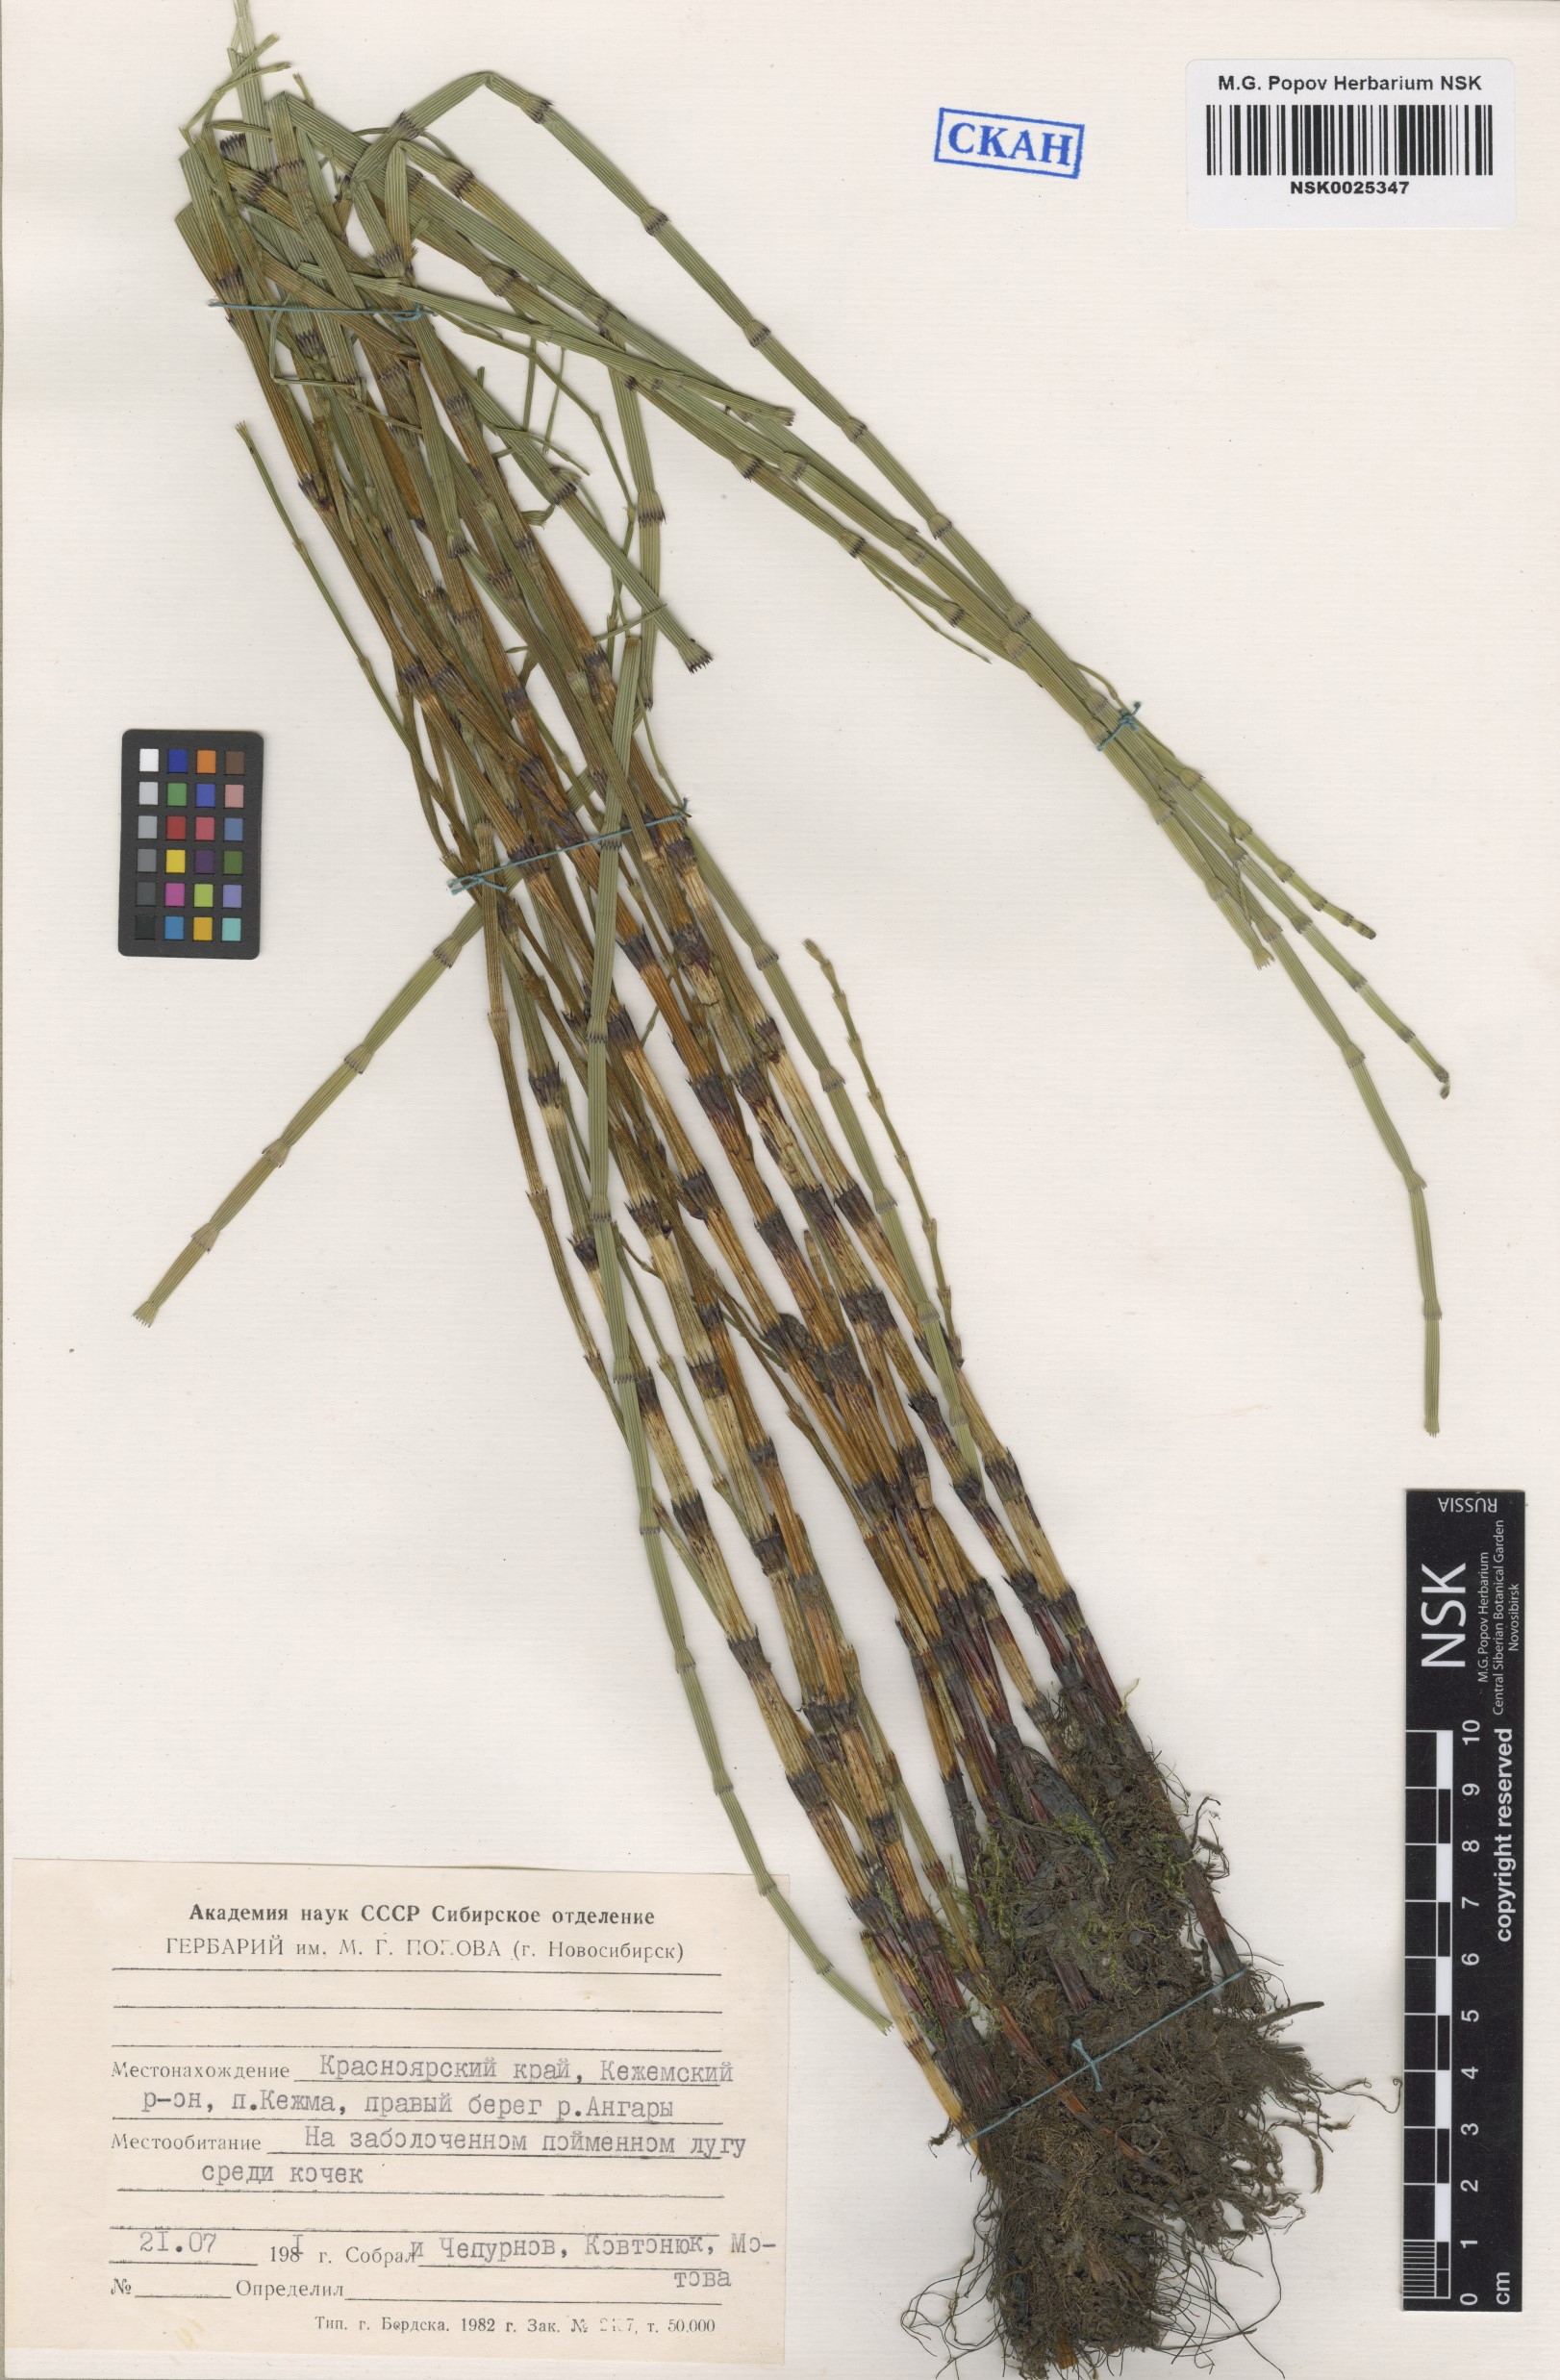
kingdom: Plantae
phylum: Tracheophyta
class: Polypodiopsida
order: Equisetales
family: Equisetaceae
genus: Equisetum
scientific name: Equisetum fluviatile
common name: Water horsetail
